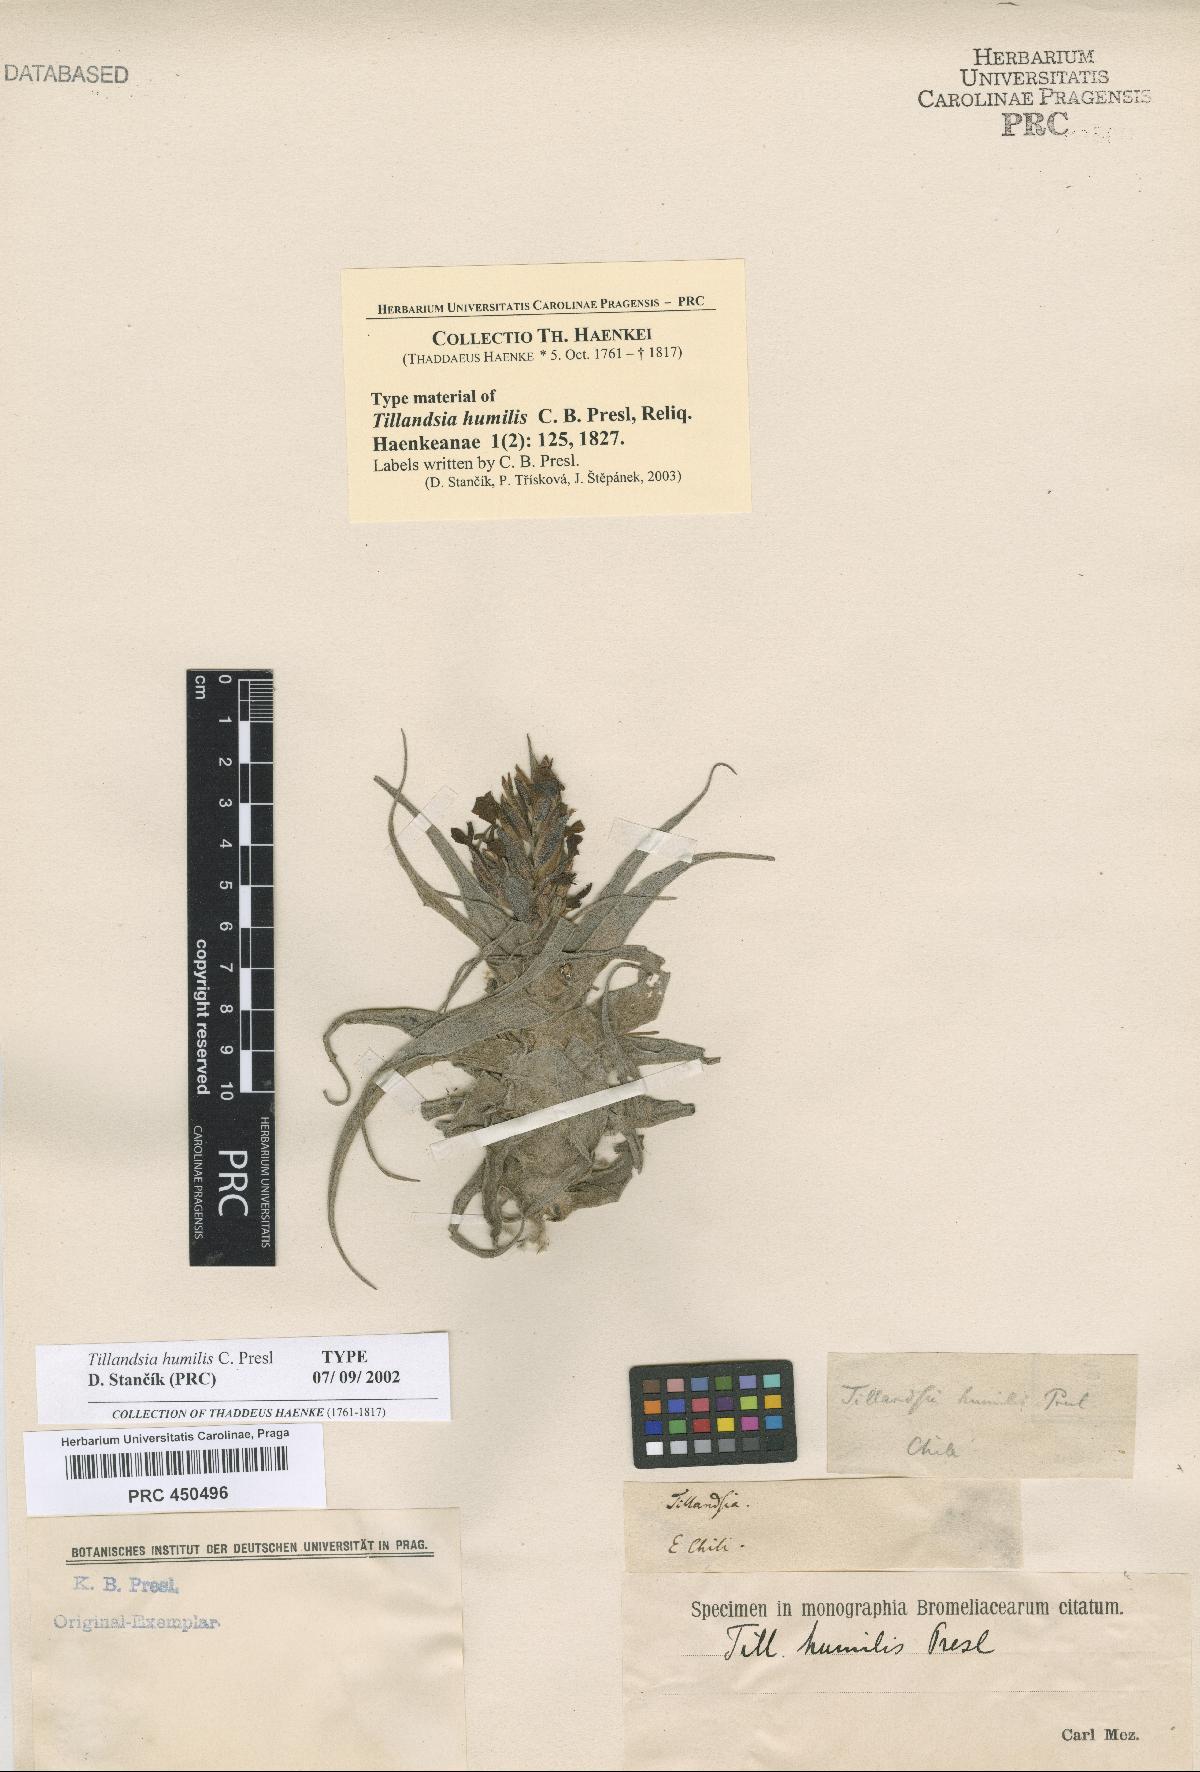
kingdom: Plantae
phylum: Tracheophyta
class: Liliopsida
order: Poales
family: Bromeliaceae
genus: Tillandsia
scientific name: Tillandsia humilis
